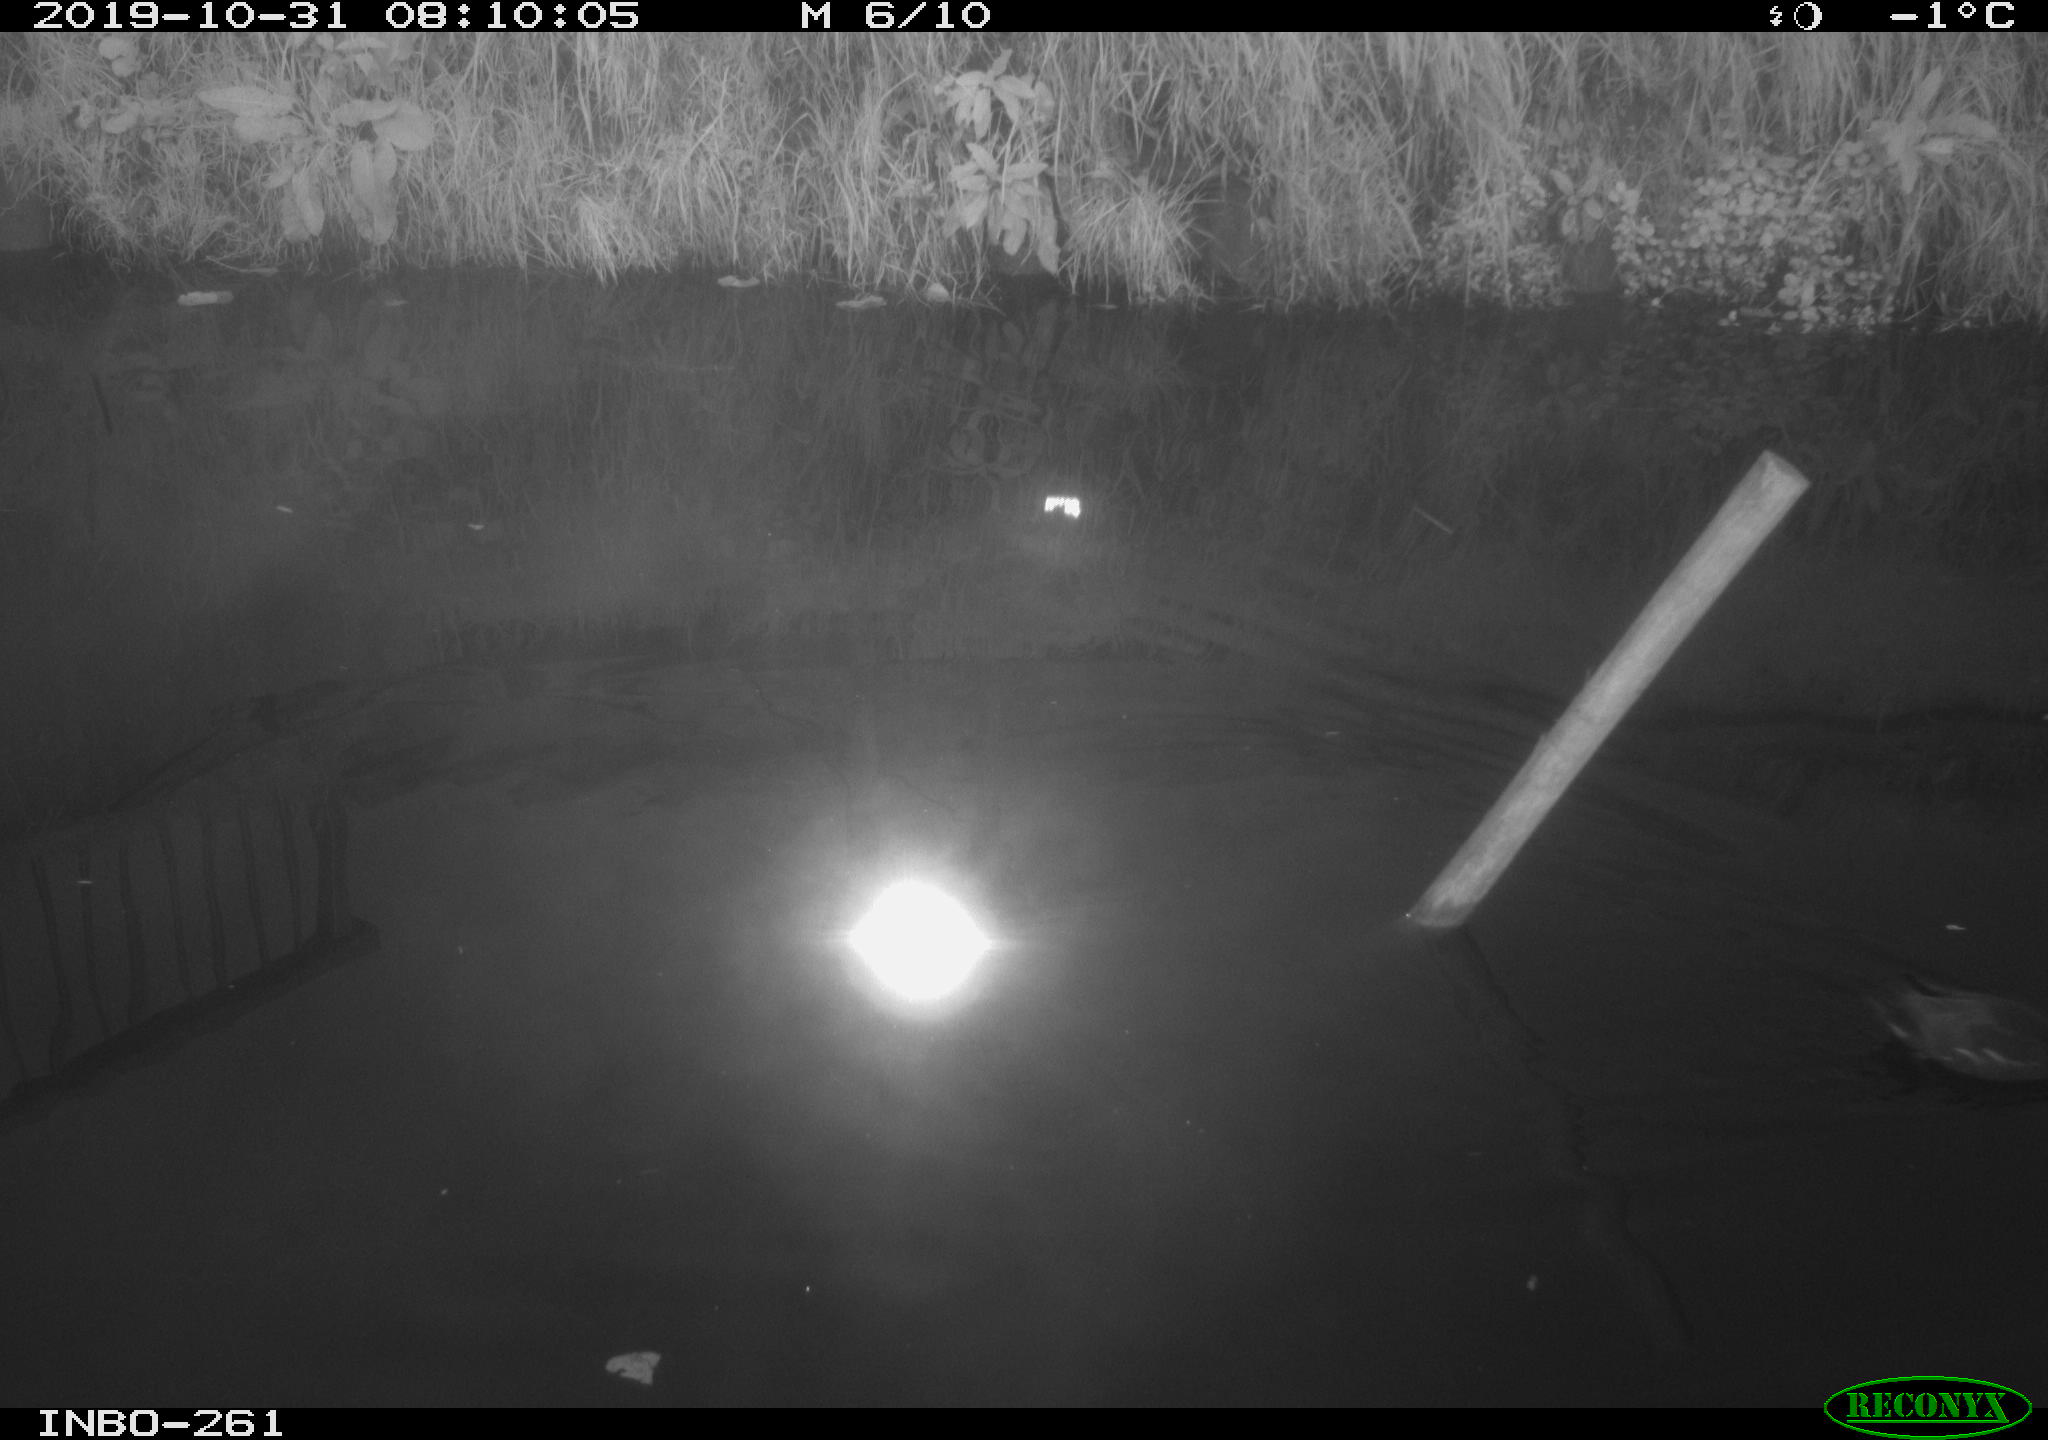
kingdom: Animalia
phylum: Chordata
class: Aves
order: Gruiformes
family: Rallidae
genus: Gallinula
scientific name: Gallinula chloropus
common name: Common moorhen
